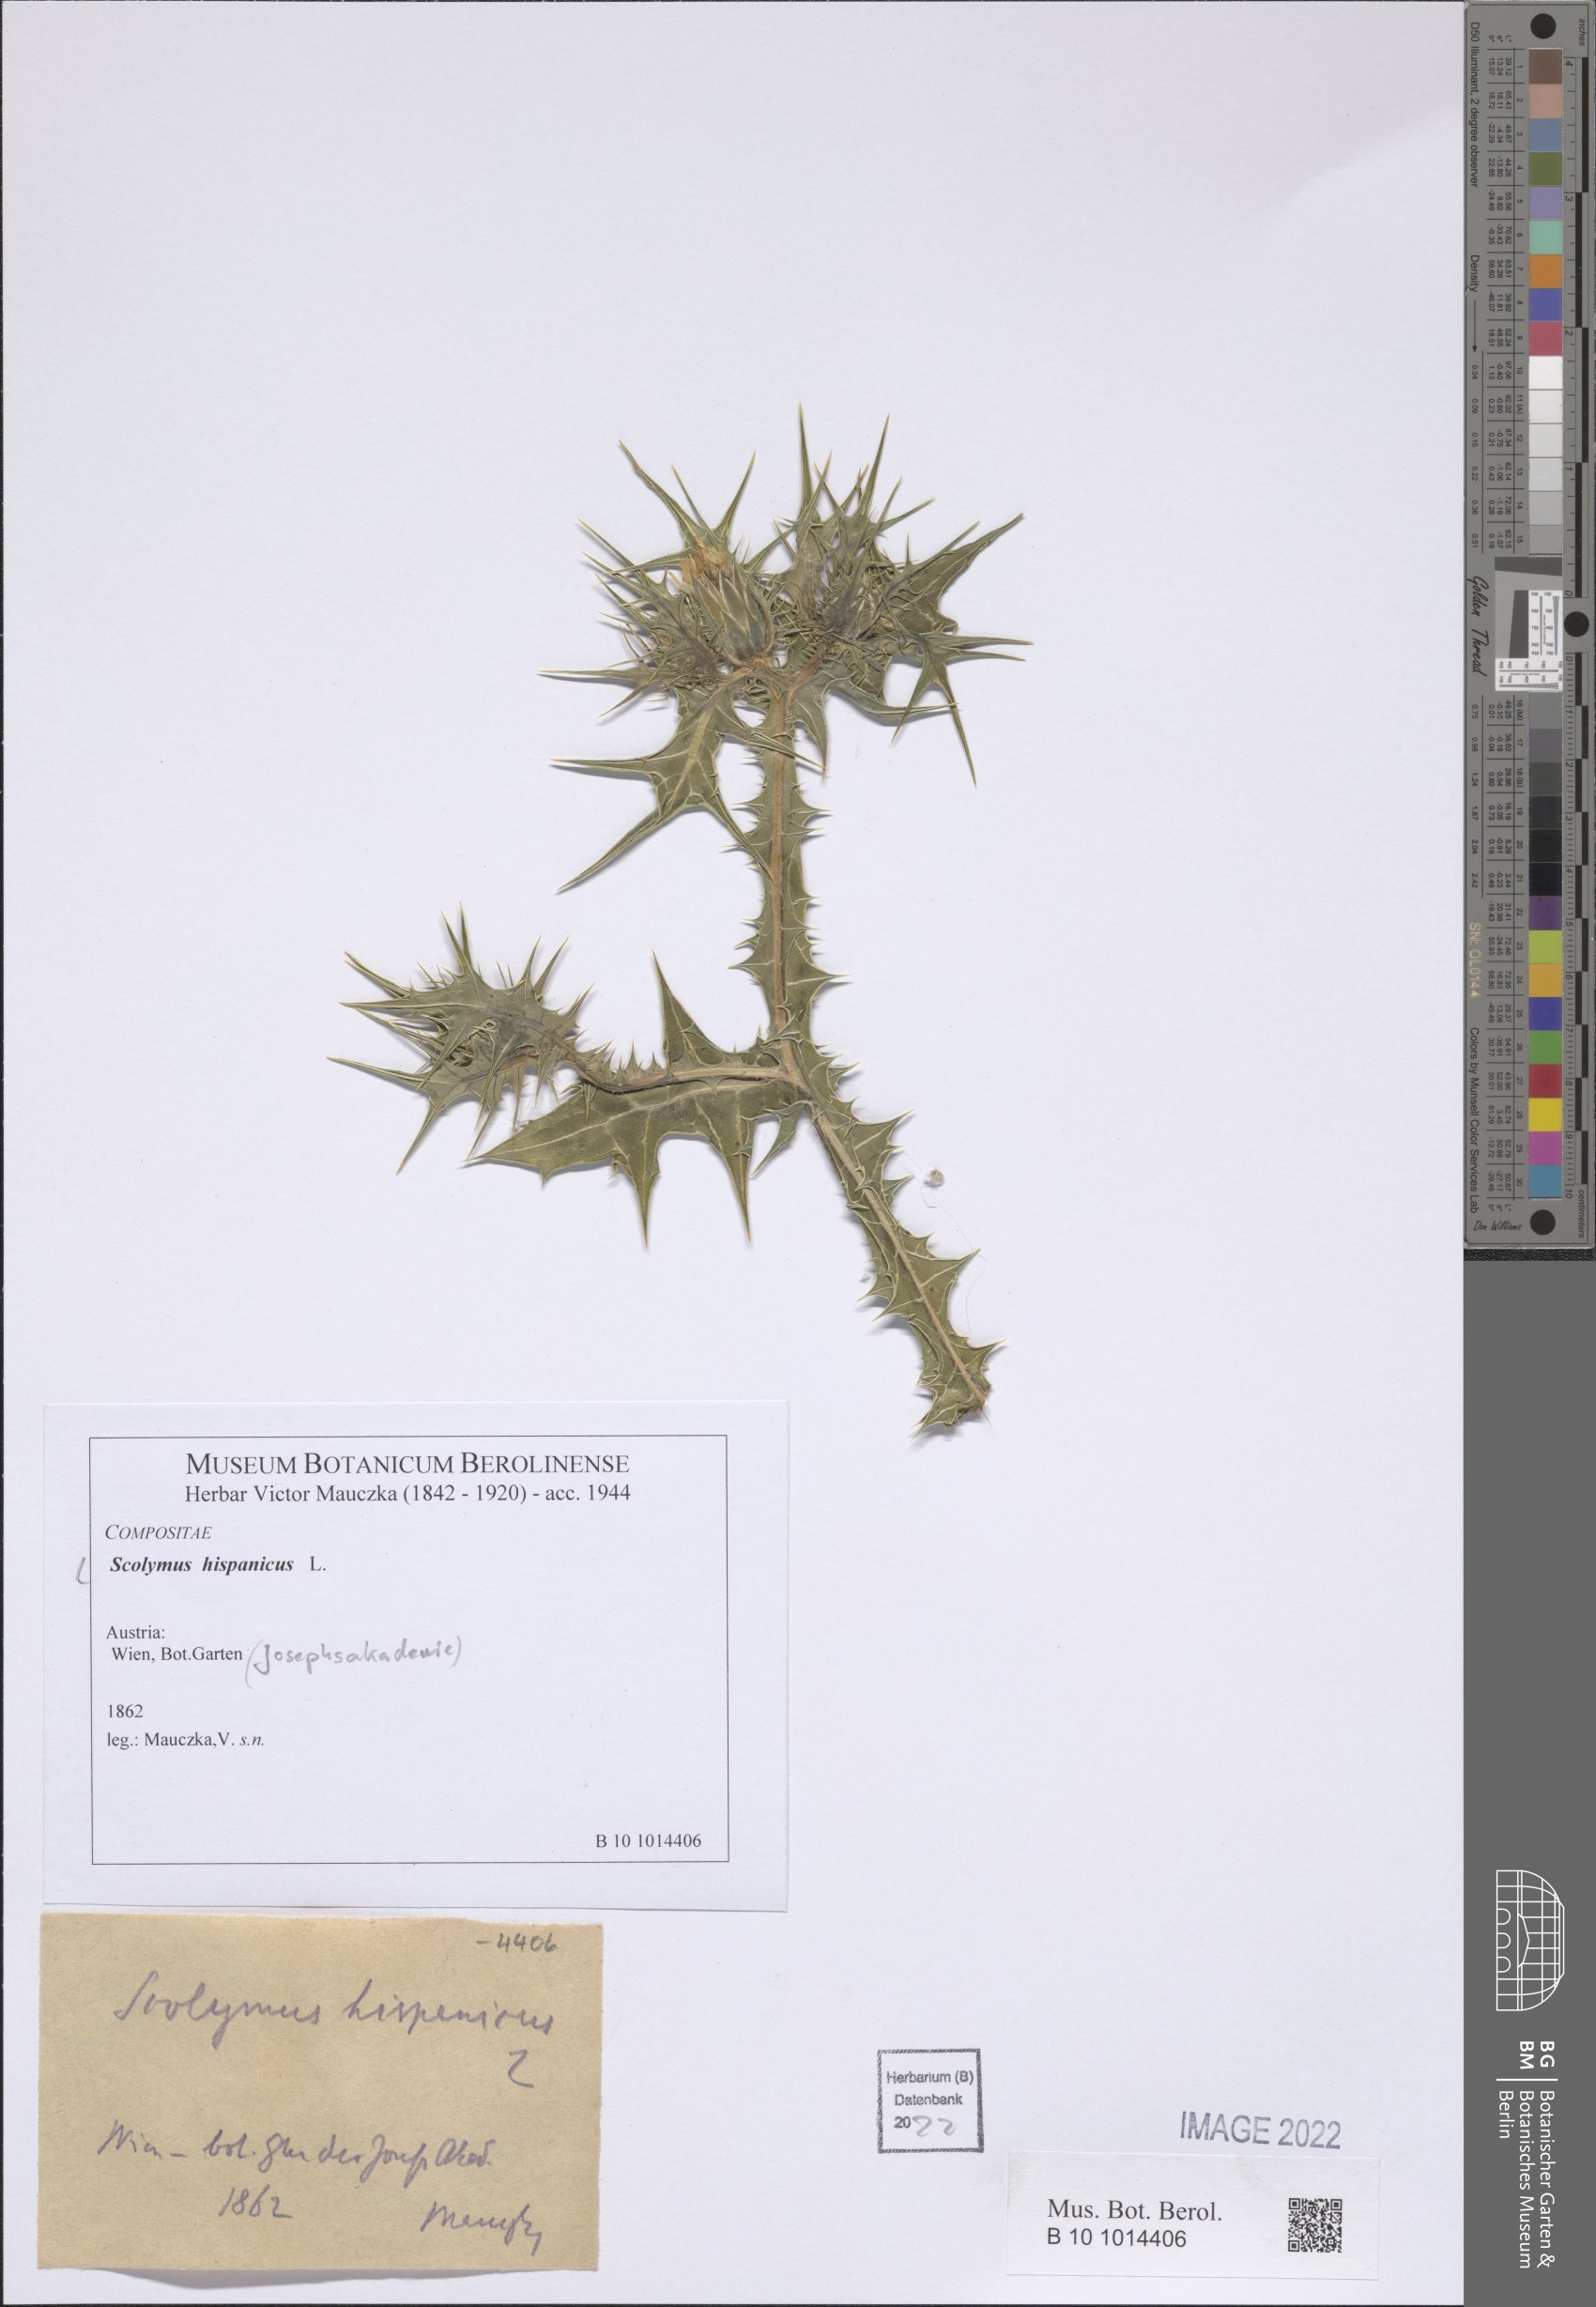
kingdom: Plantae
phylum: Tracheophyta
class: Magnoliopsida
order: Asterales
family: Asteraceae
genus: Scolymus
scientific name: Scolymus hispanicus
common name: Golden thistle
